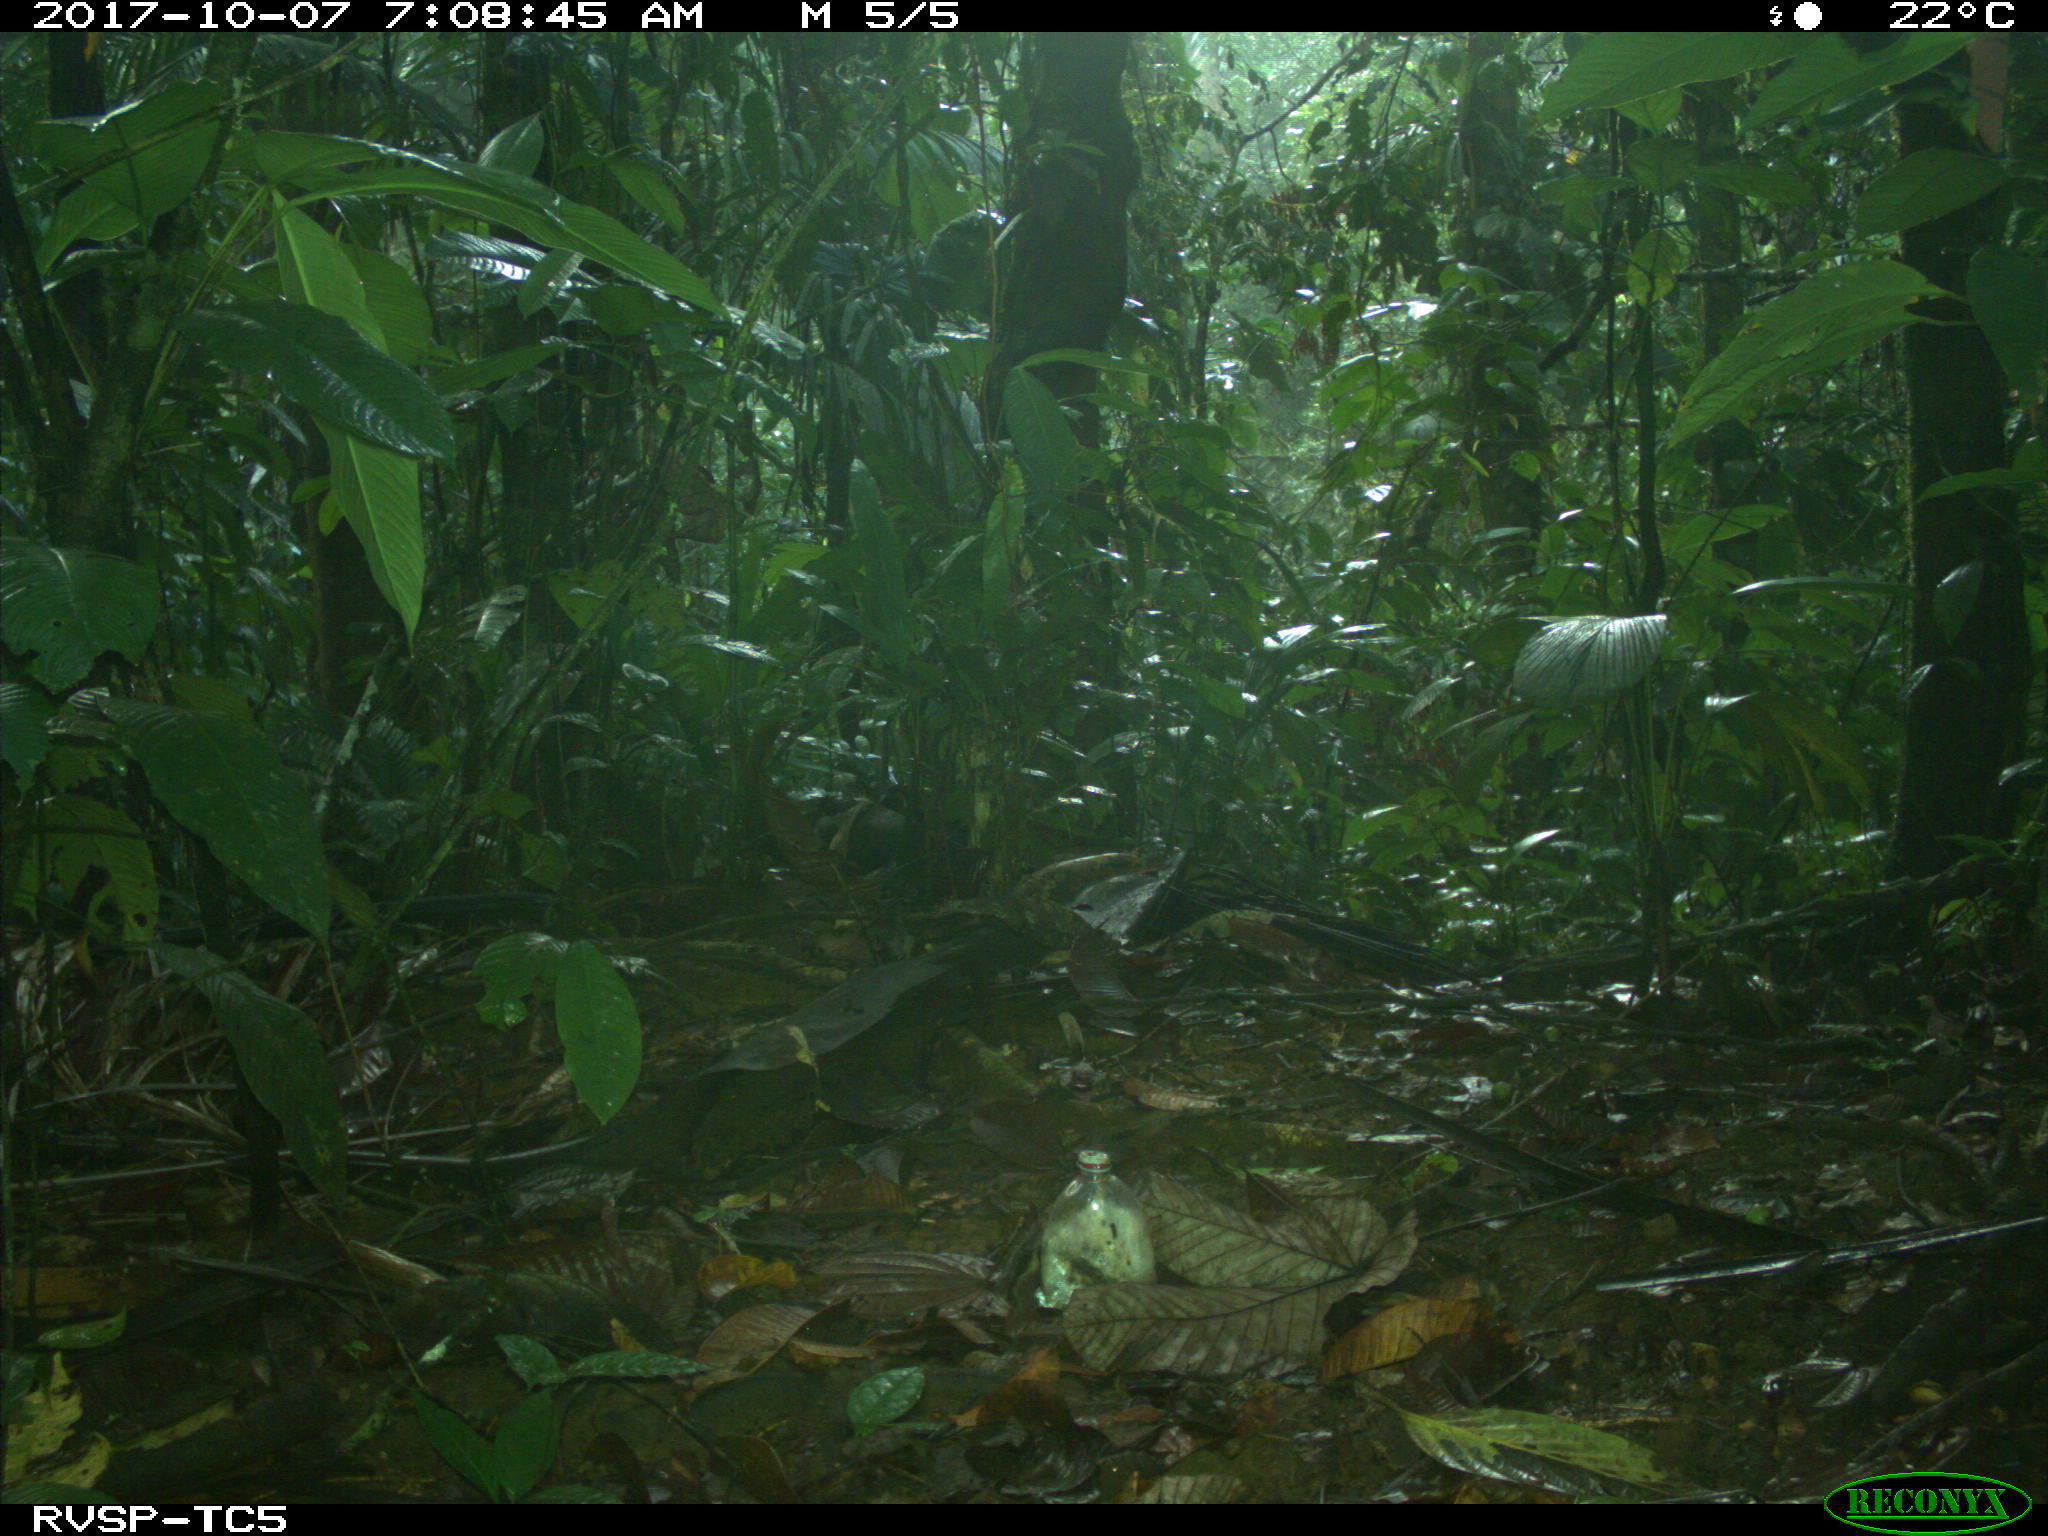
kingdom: Animalia
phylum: Chordata
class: Mammalia
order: Rodentia
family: Dasyproctidae
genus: Dasyprocta
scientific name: Dasyprocta punctata
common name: Central american agouti
